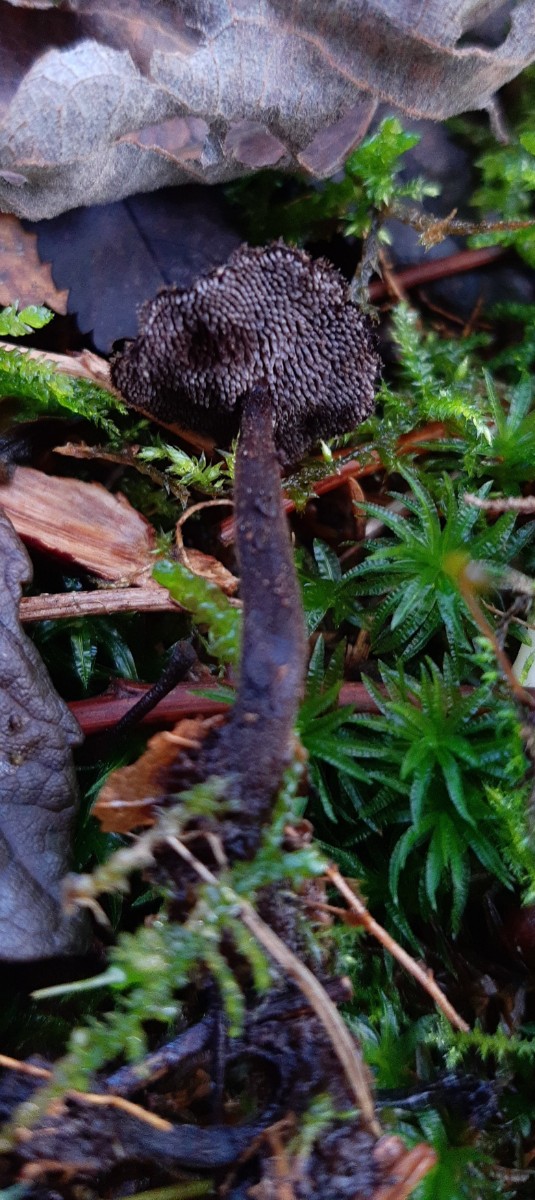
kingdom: Fungi
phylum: Basidiomycota
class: Agaricomycetes
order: Russulales
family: Auriscalpiaceae
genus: Auriscalpium
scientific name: Auriscalpium vulgare
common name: koglepigsvamp
